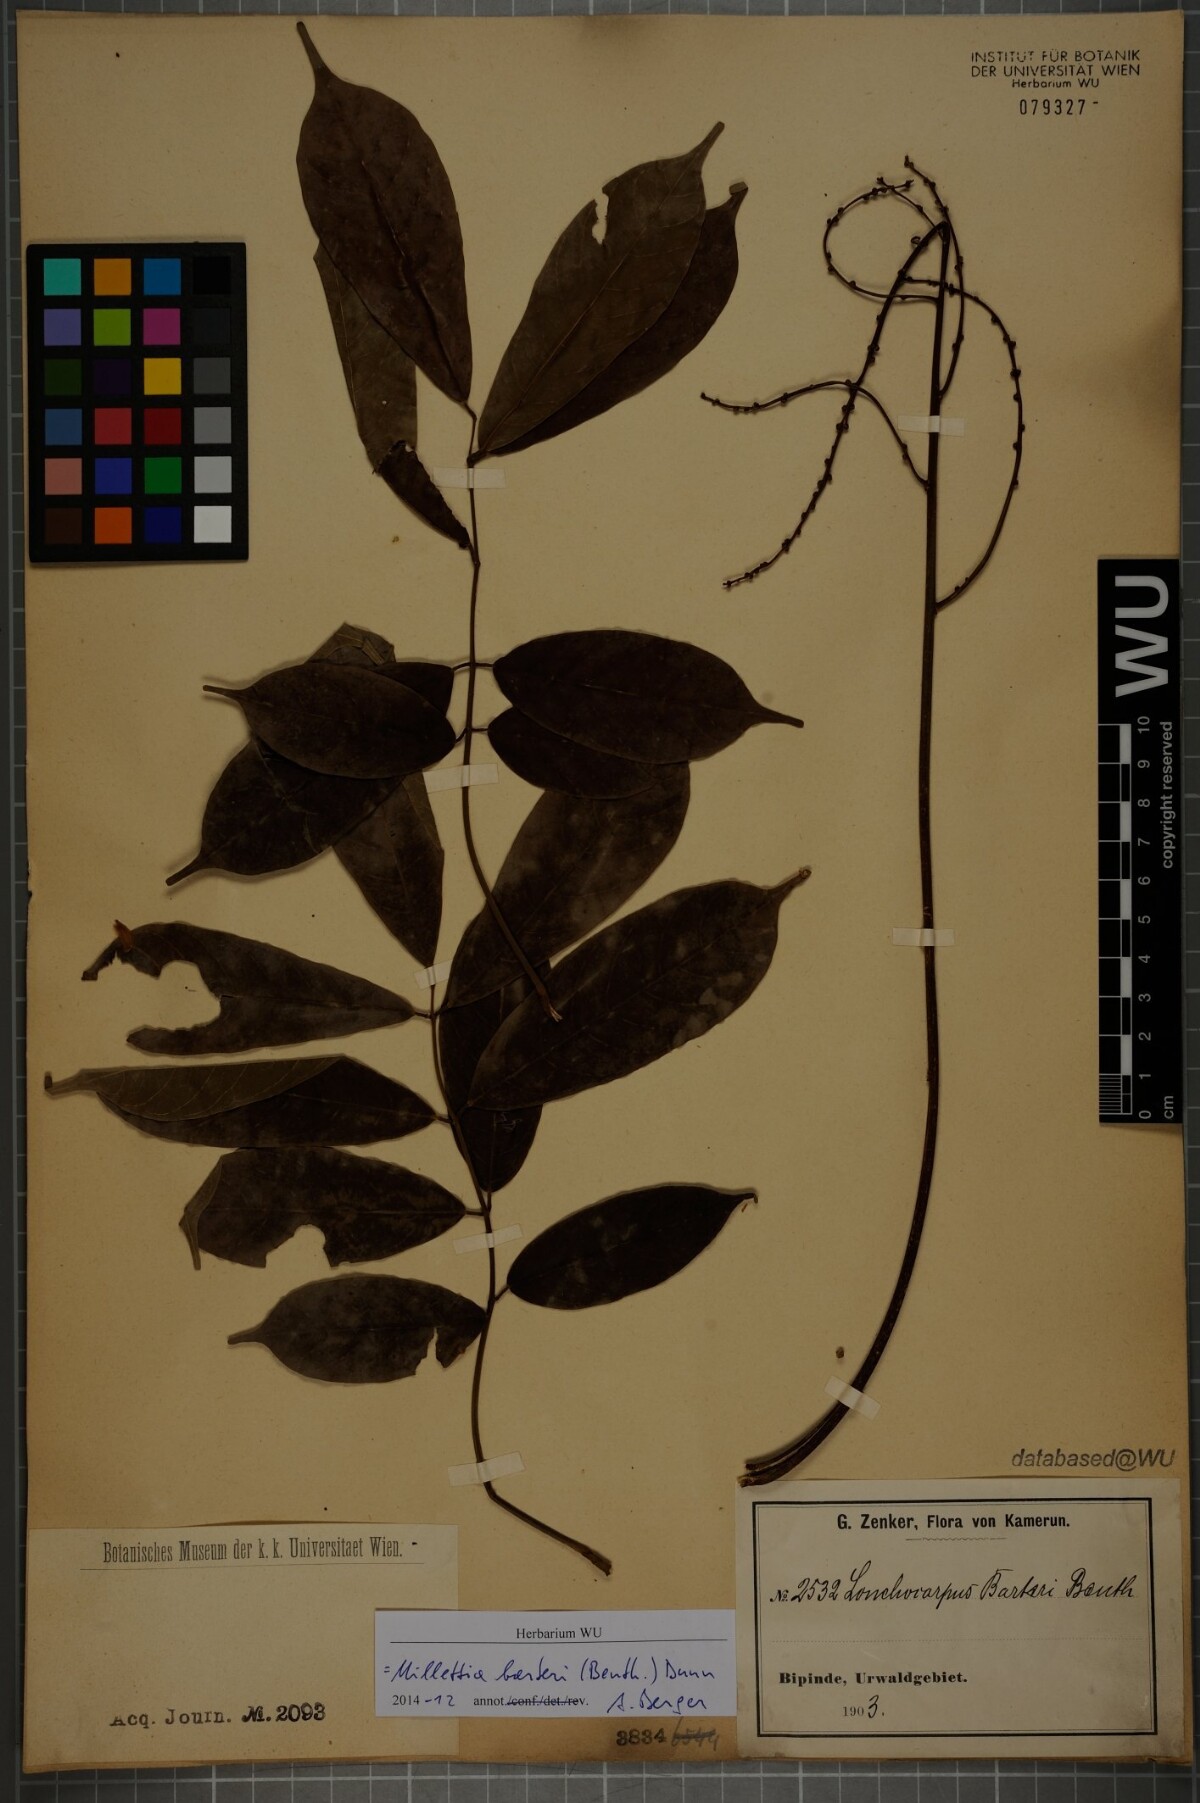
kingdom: Plantae
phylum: Tracheophyta
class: Magnoliopsida
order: Fabales
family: Fabaceae
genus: Millettia
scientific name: Millettia barteri
